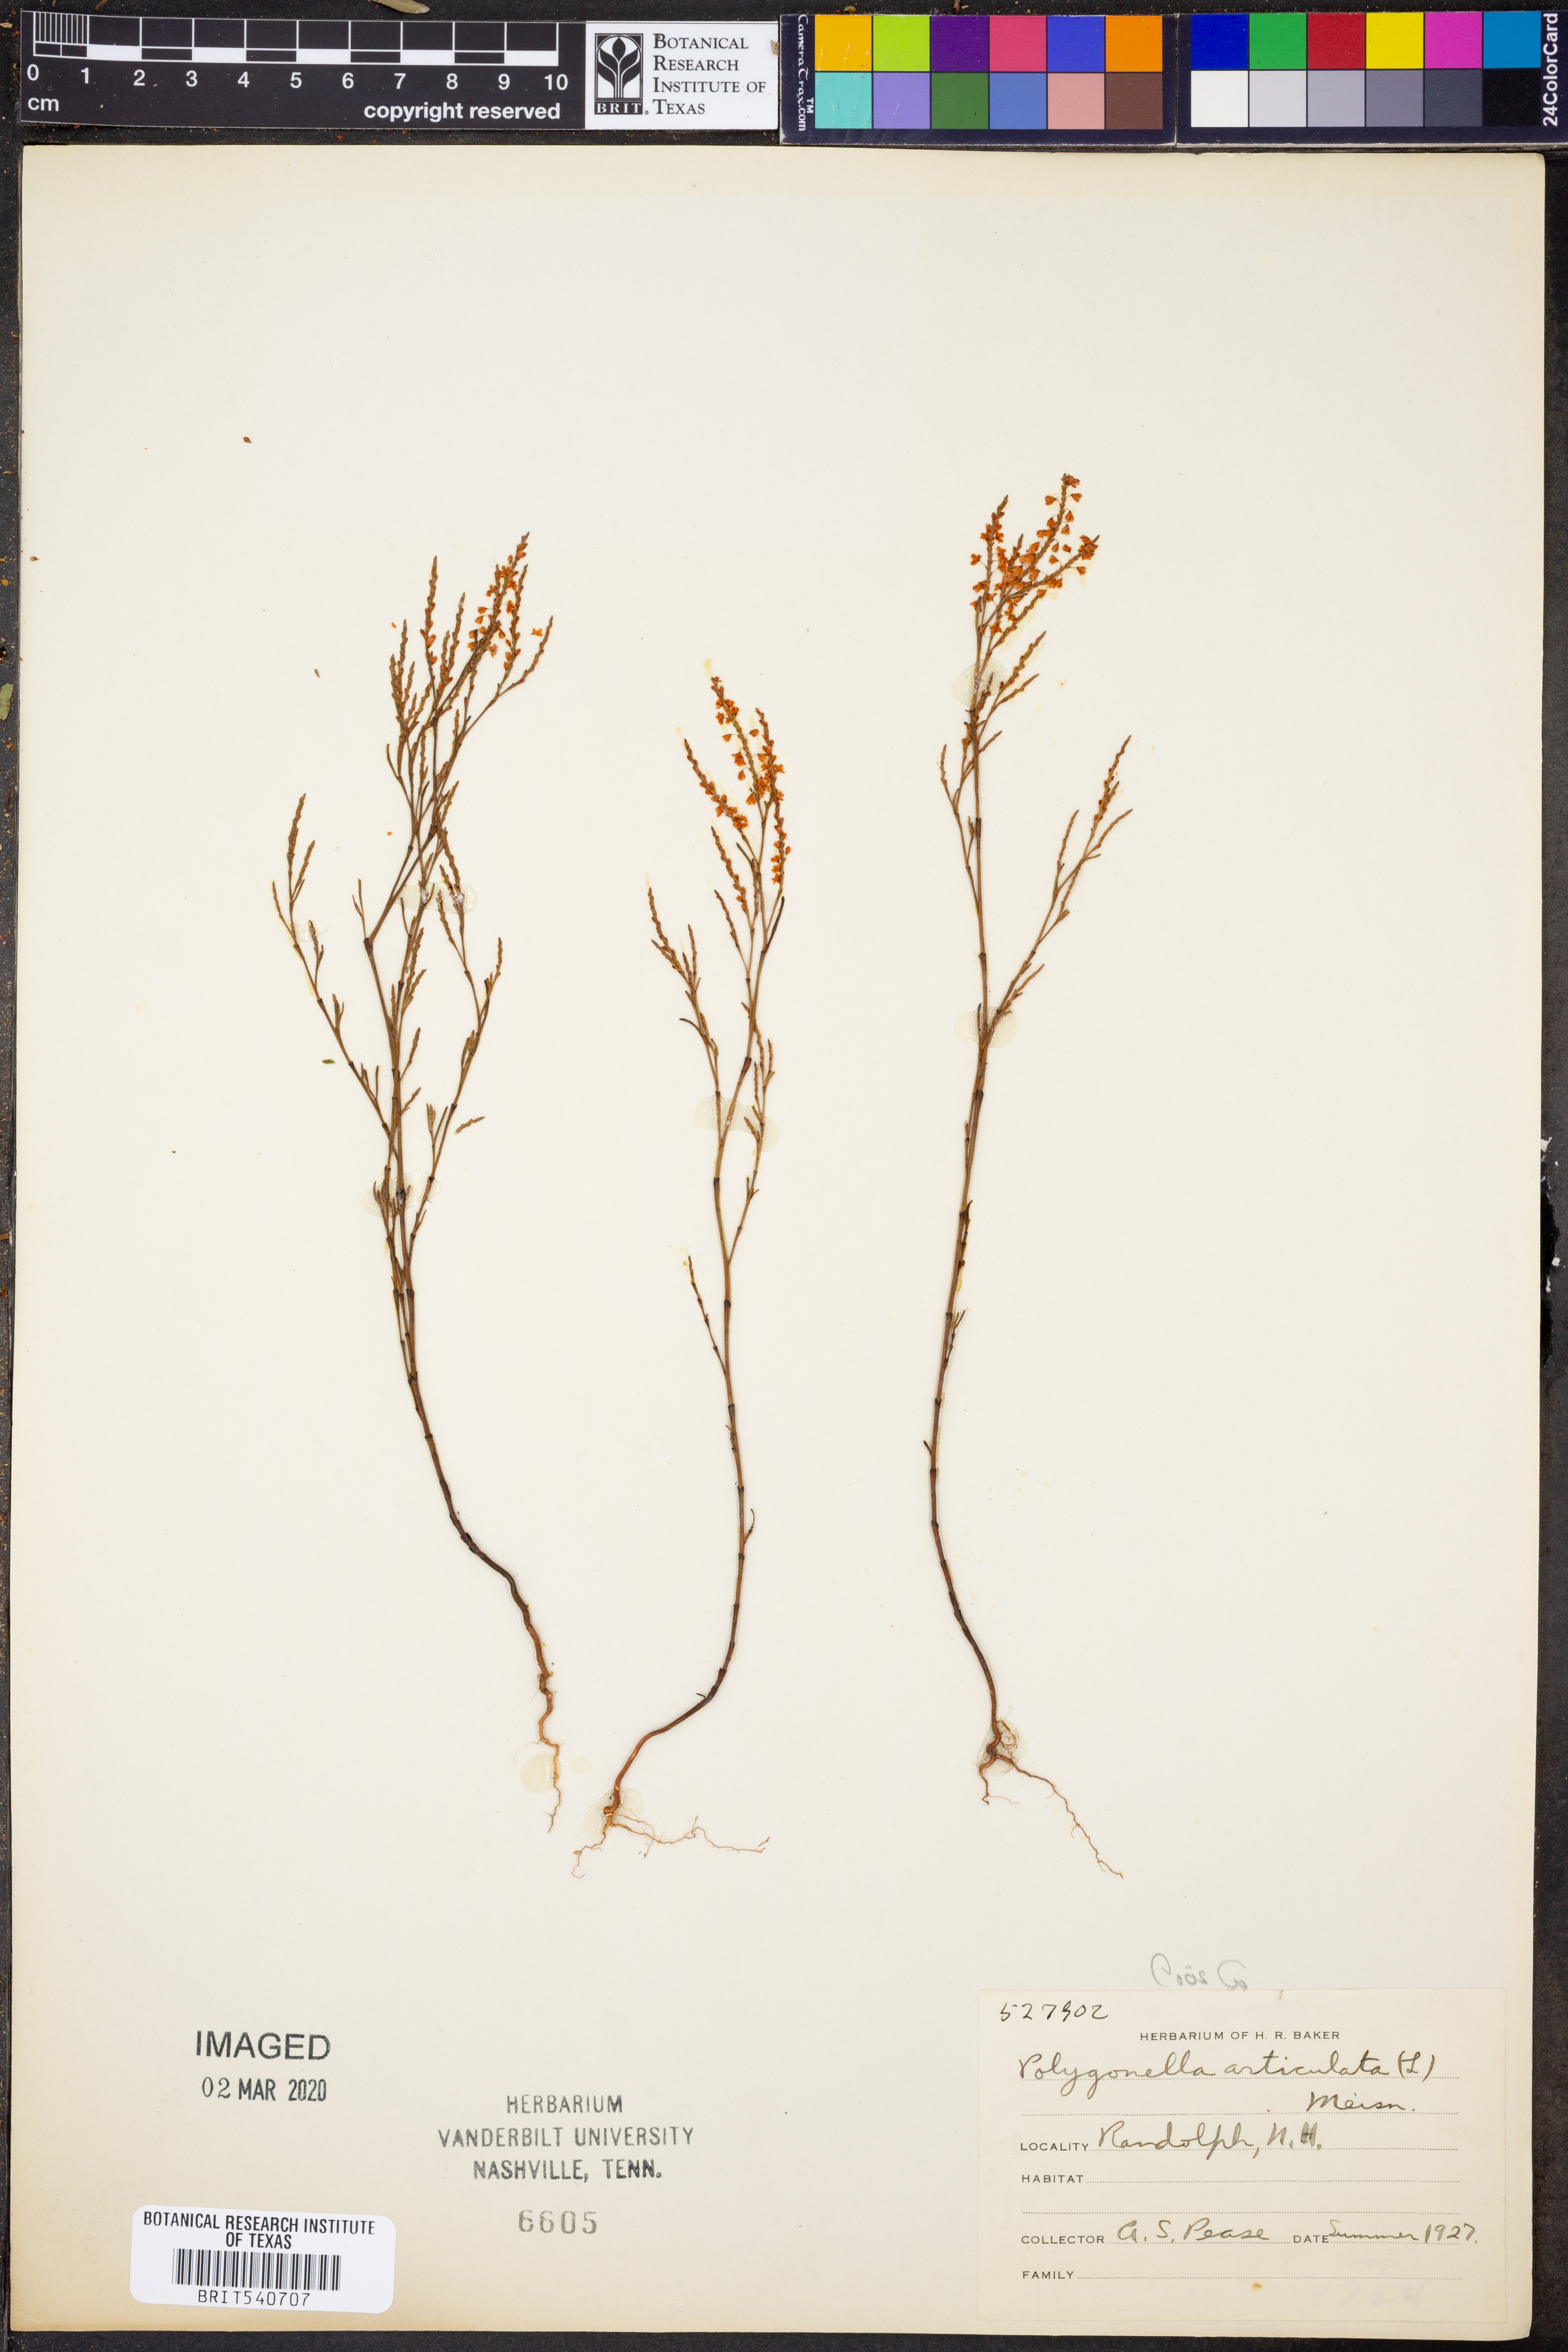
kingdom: Plantae
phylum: Tracheophyta
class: Magnoliopsida
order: Caryophyllales
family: Polygonaceae
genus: Polygonella
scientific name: Polygonella articulata
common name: Coastal jointweed
